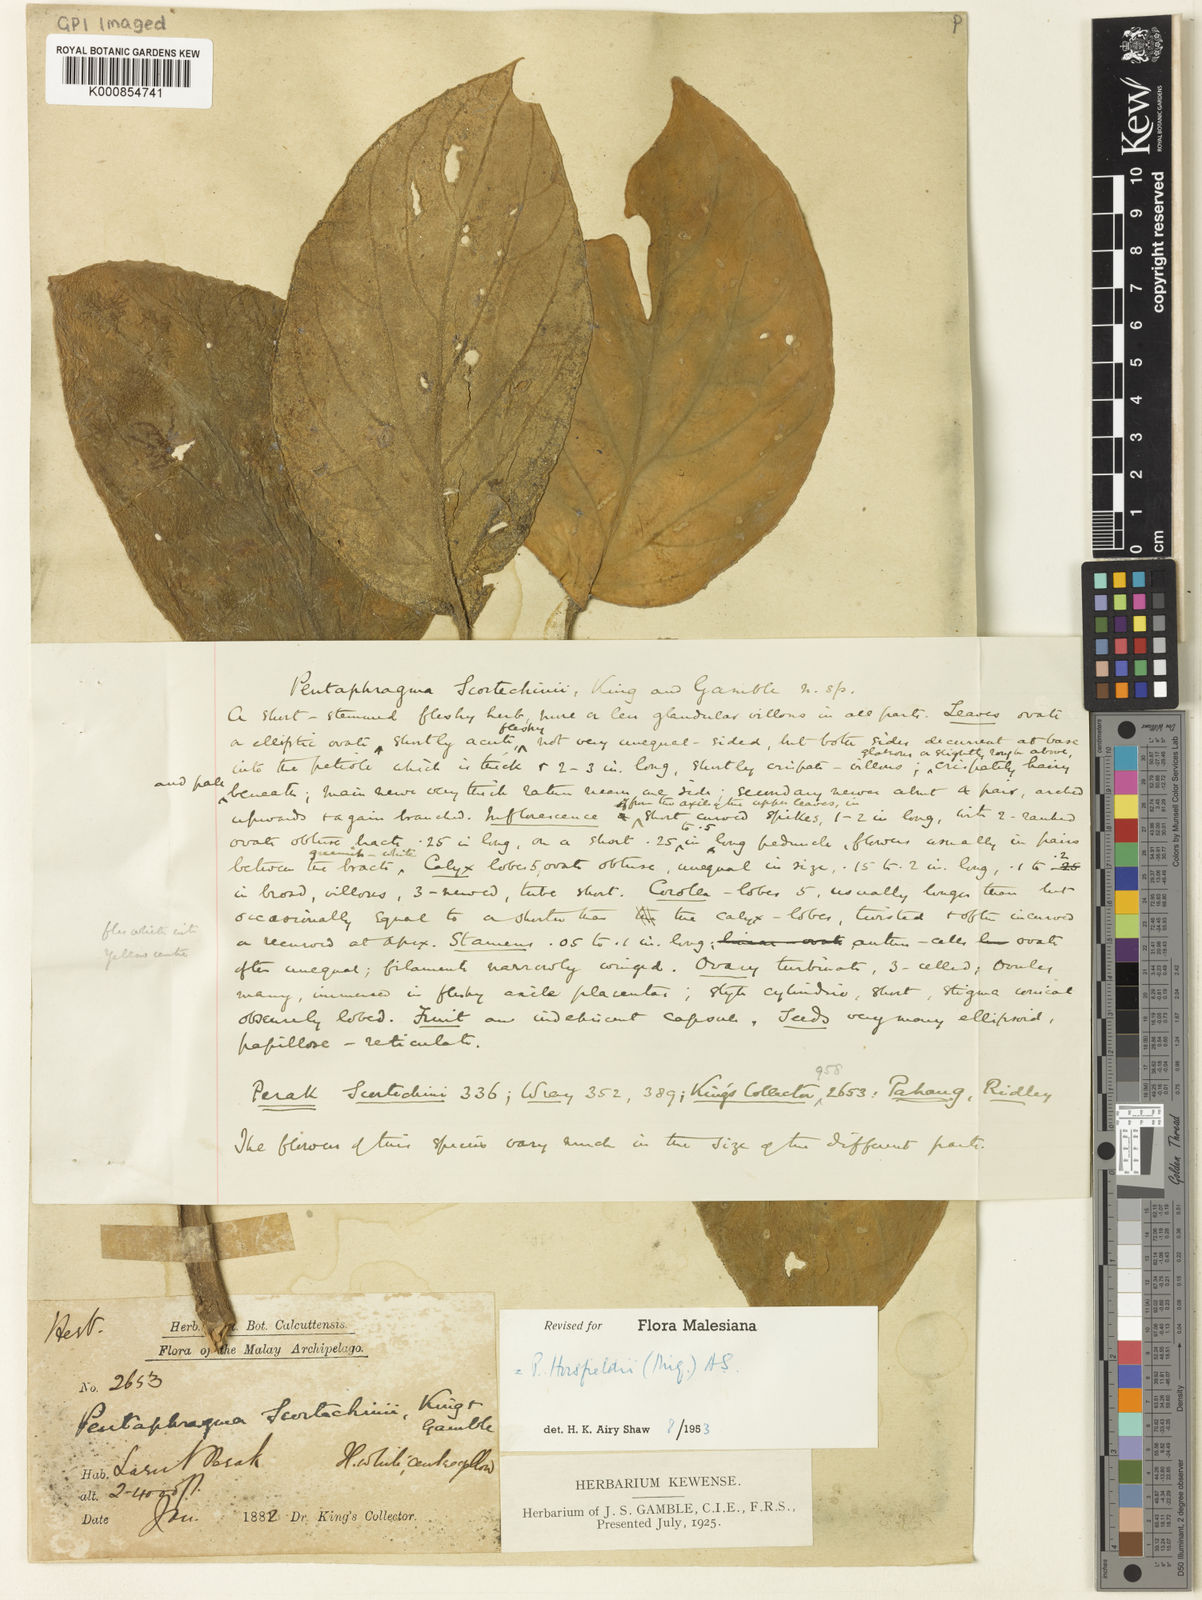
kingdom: Plantae
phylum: Tracheophyta
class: Magnoliopsida
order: Asterales
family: Pentaphragmataceae
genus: Pentaphragma
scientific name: Pentaphragma horsfieldii
